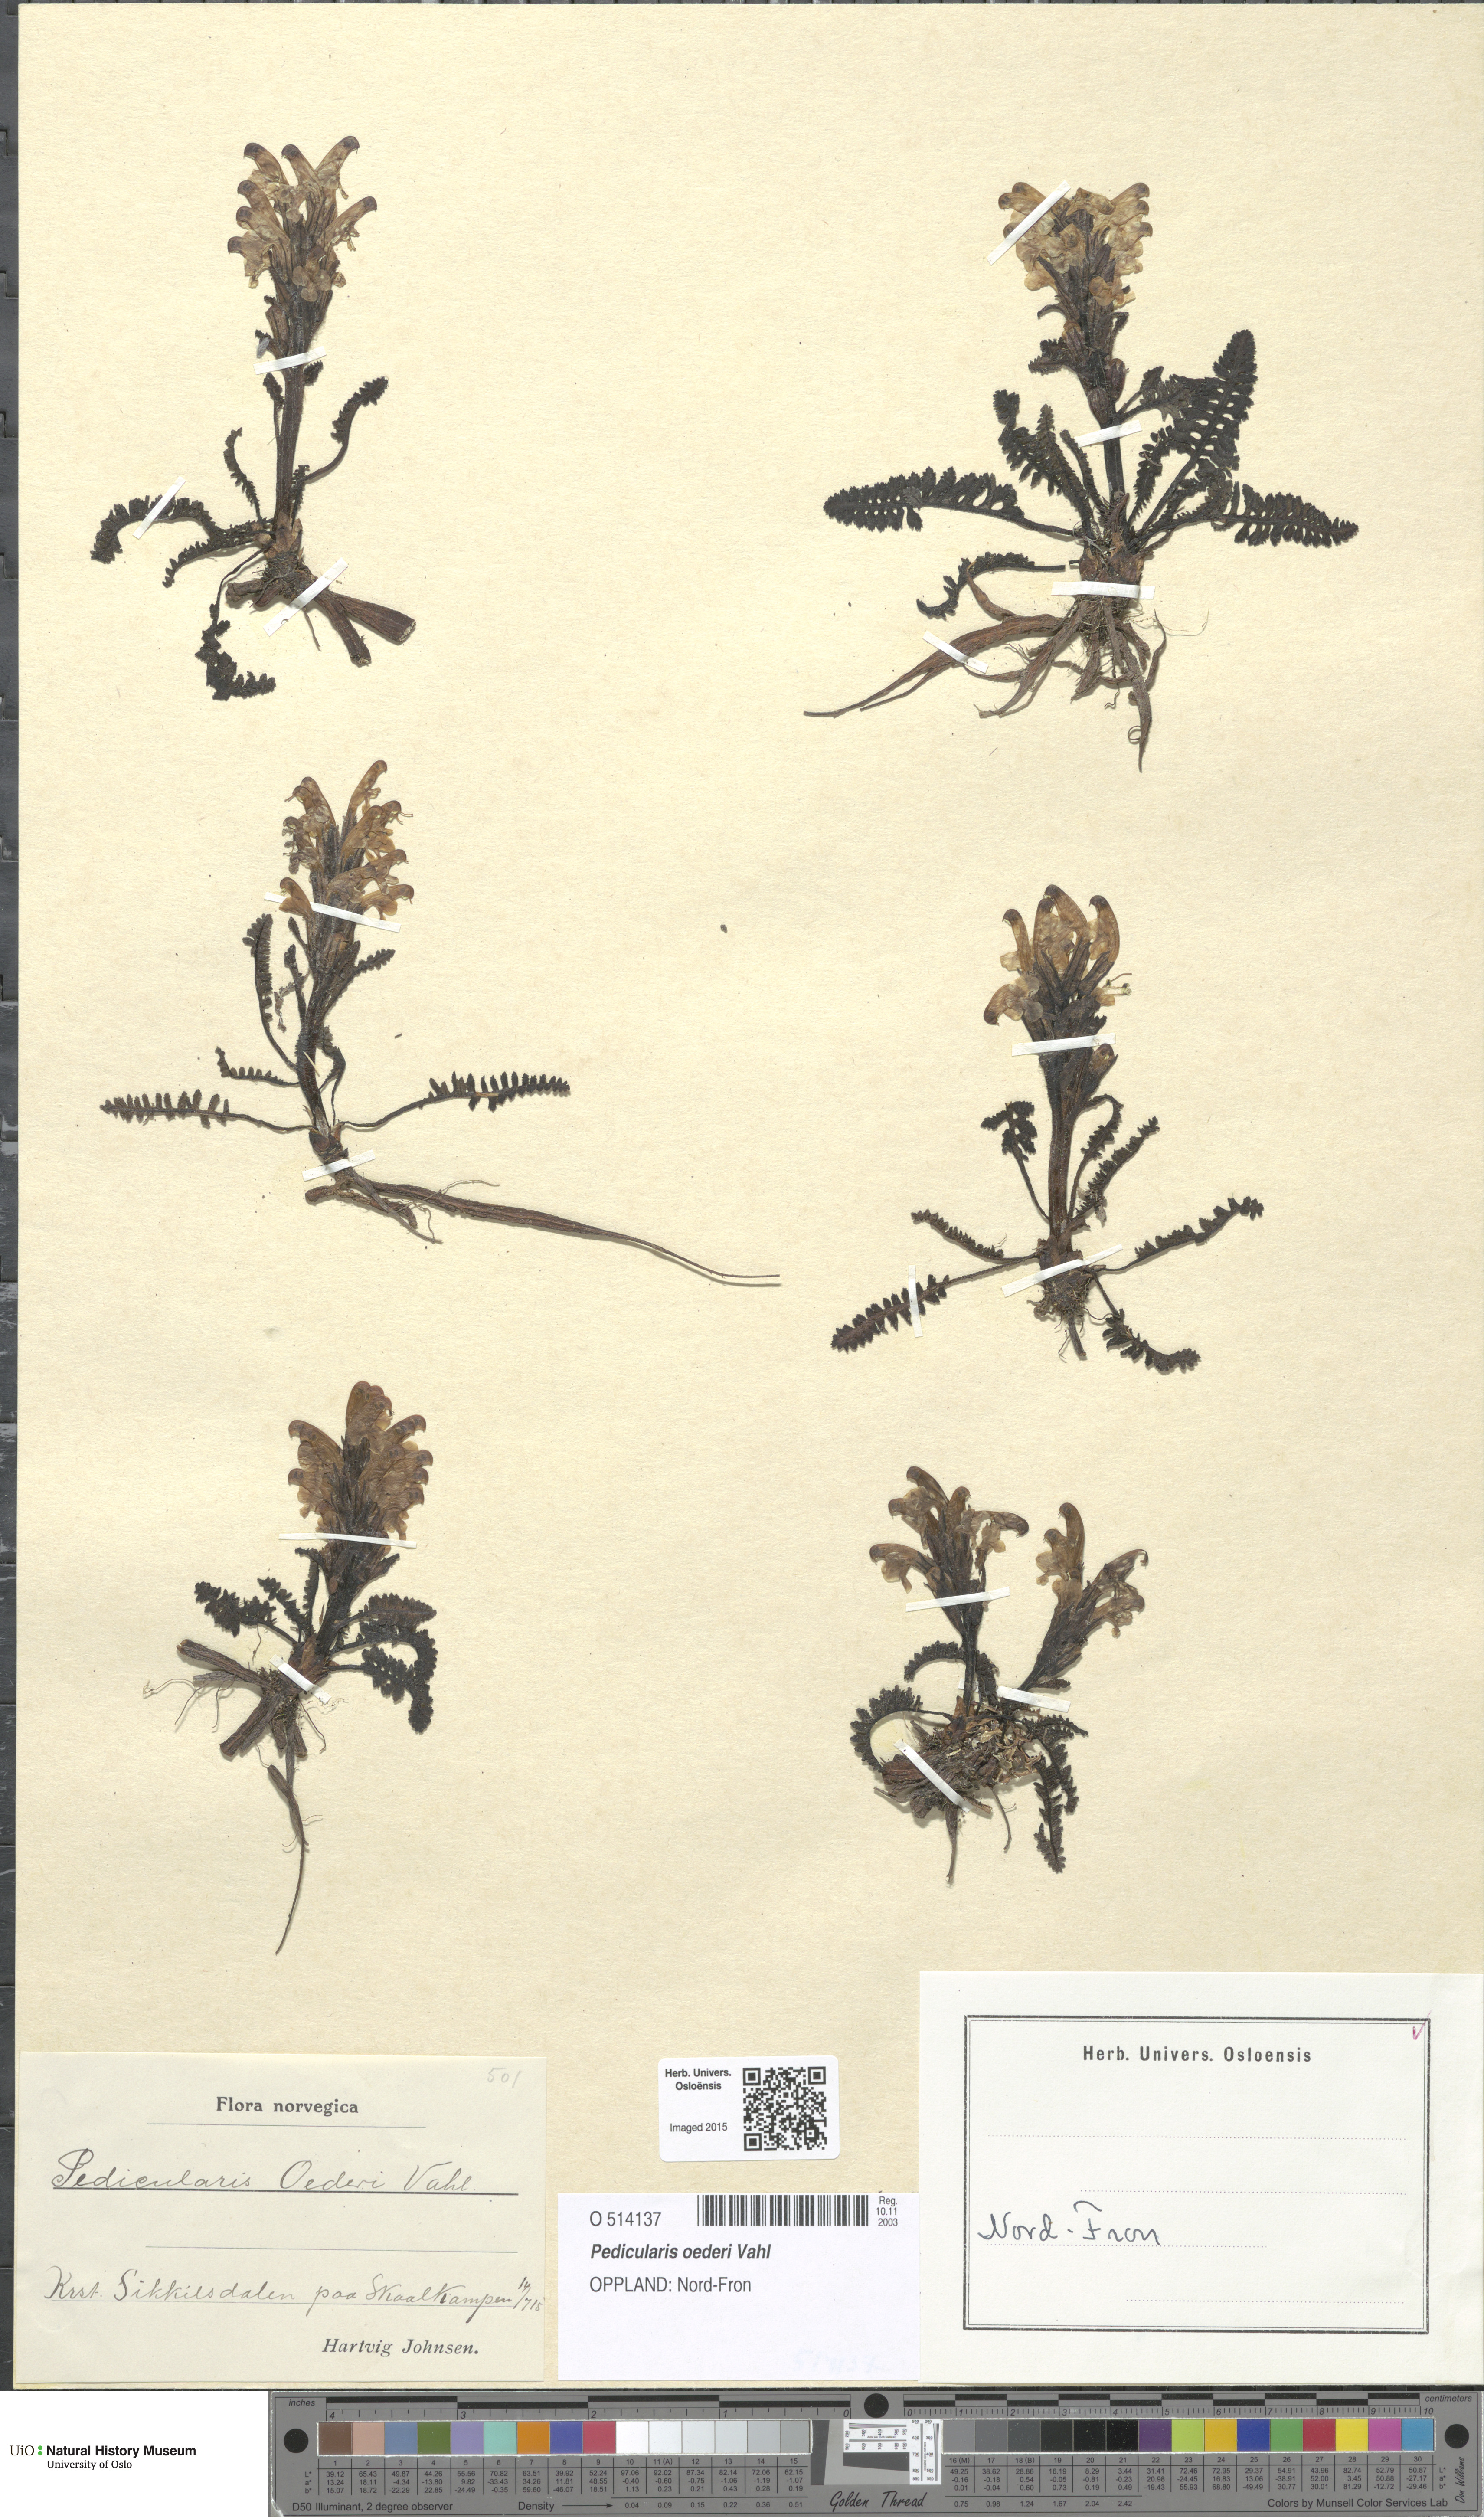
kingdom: Plantae
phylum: Tracheophyta
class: Magnoliopsida
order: Lamiales
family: Orobanchaceae
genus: Pedicularis
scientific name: Pedicularis oederi
